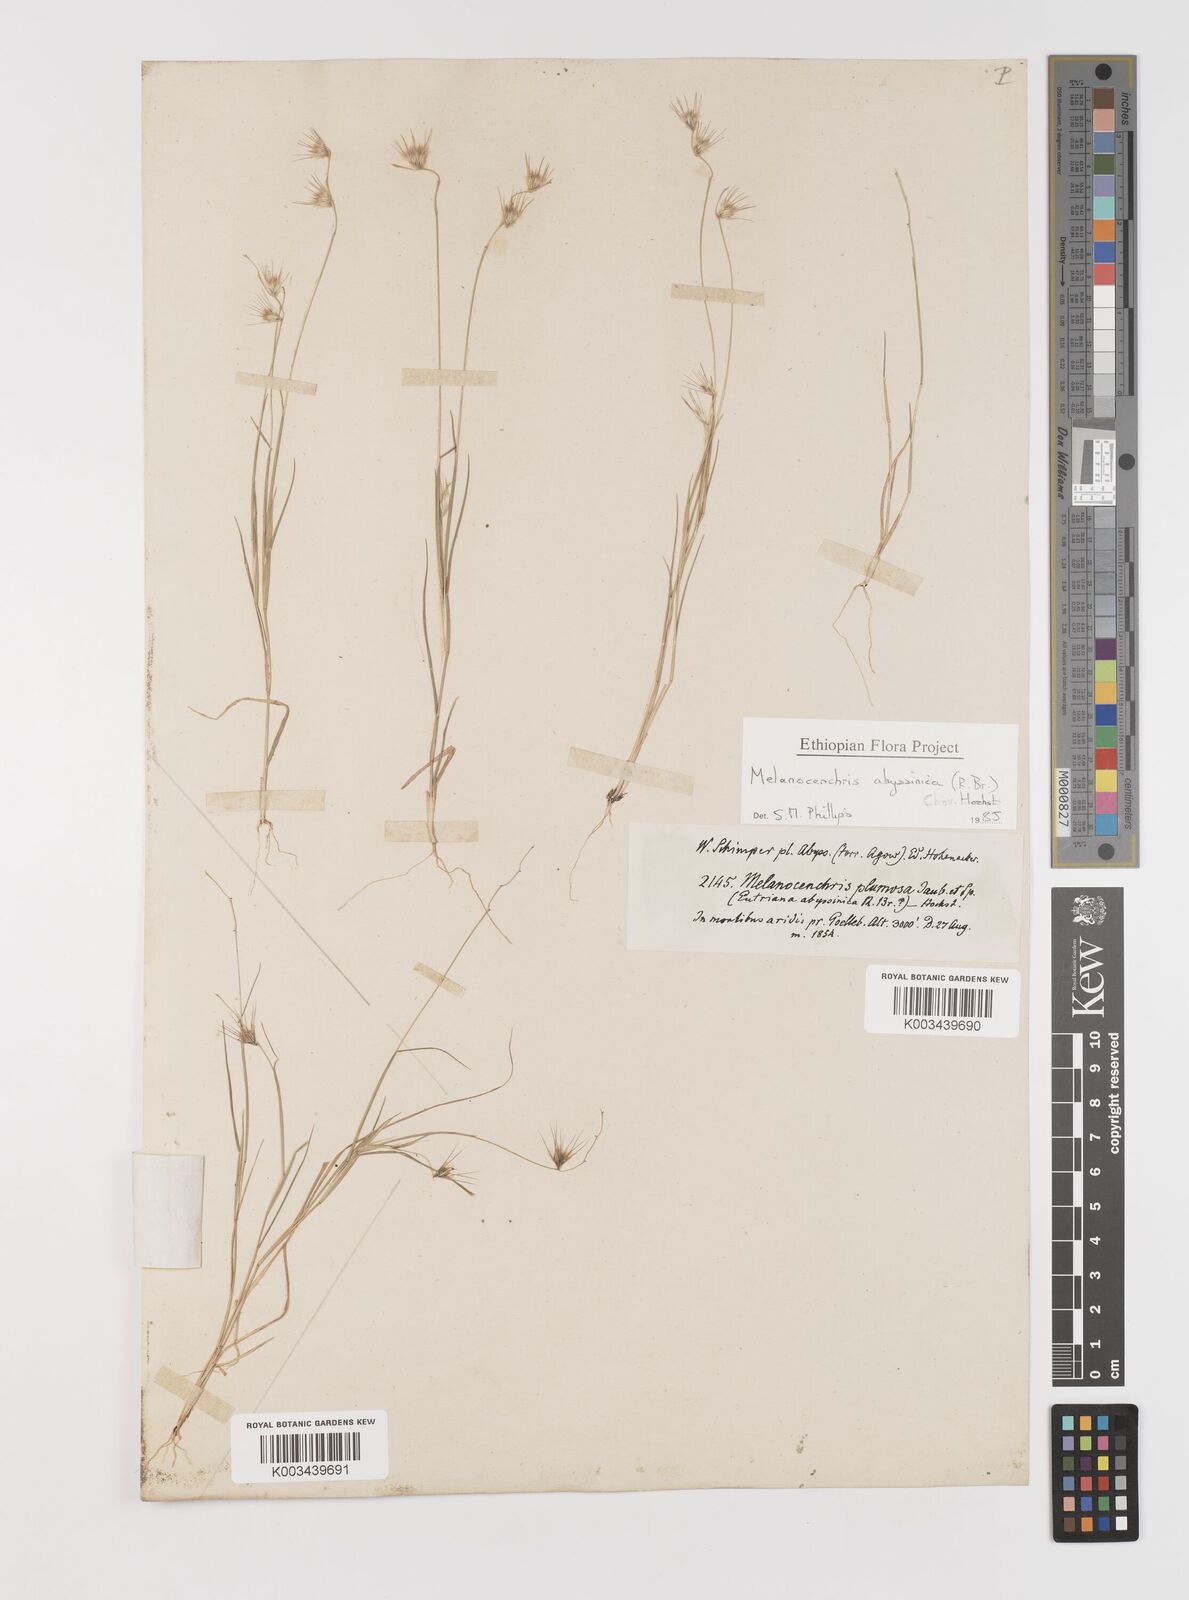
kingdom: Plantae
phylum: Tracheophyta
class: Liliopsida
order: Poales
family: Poaceae
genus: Melanocenchris
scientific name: Melanocenchris abyssinica
